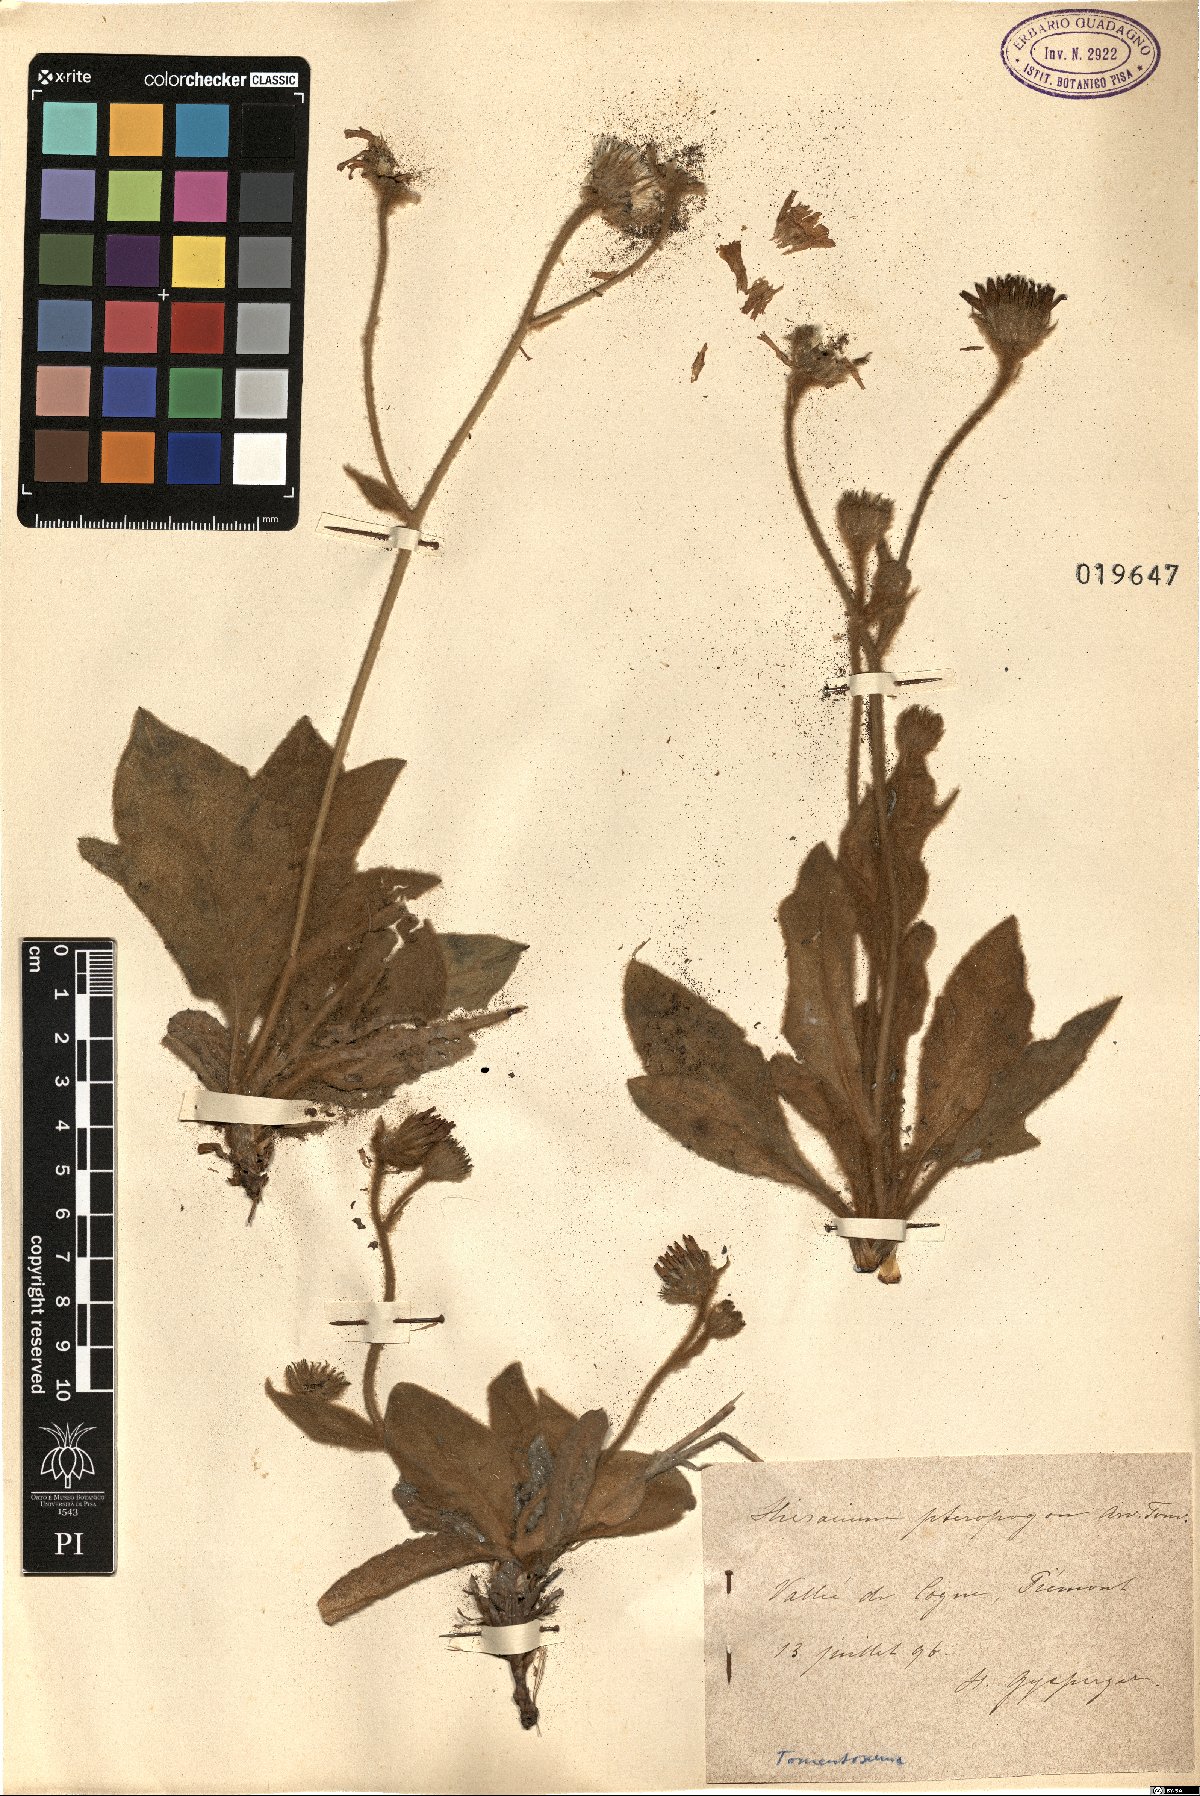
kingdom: Plantae
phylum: Tracheophyta
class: Magnoliopsida
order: Asterales
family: Asteraceae
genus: Hieracium
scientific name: Hieracium pteropogon
